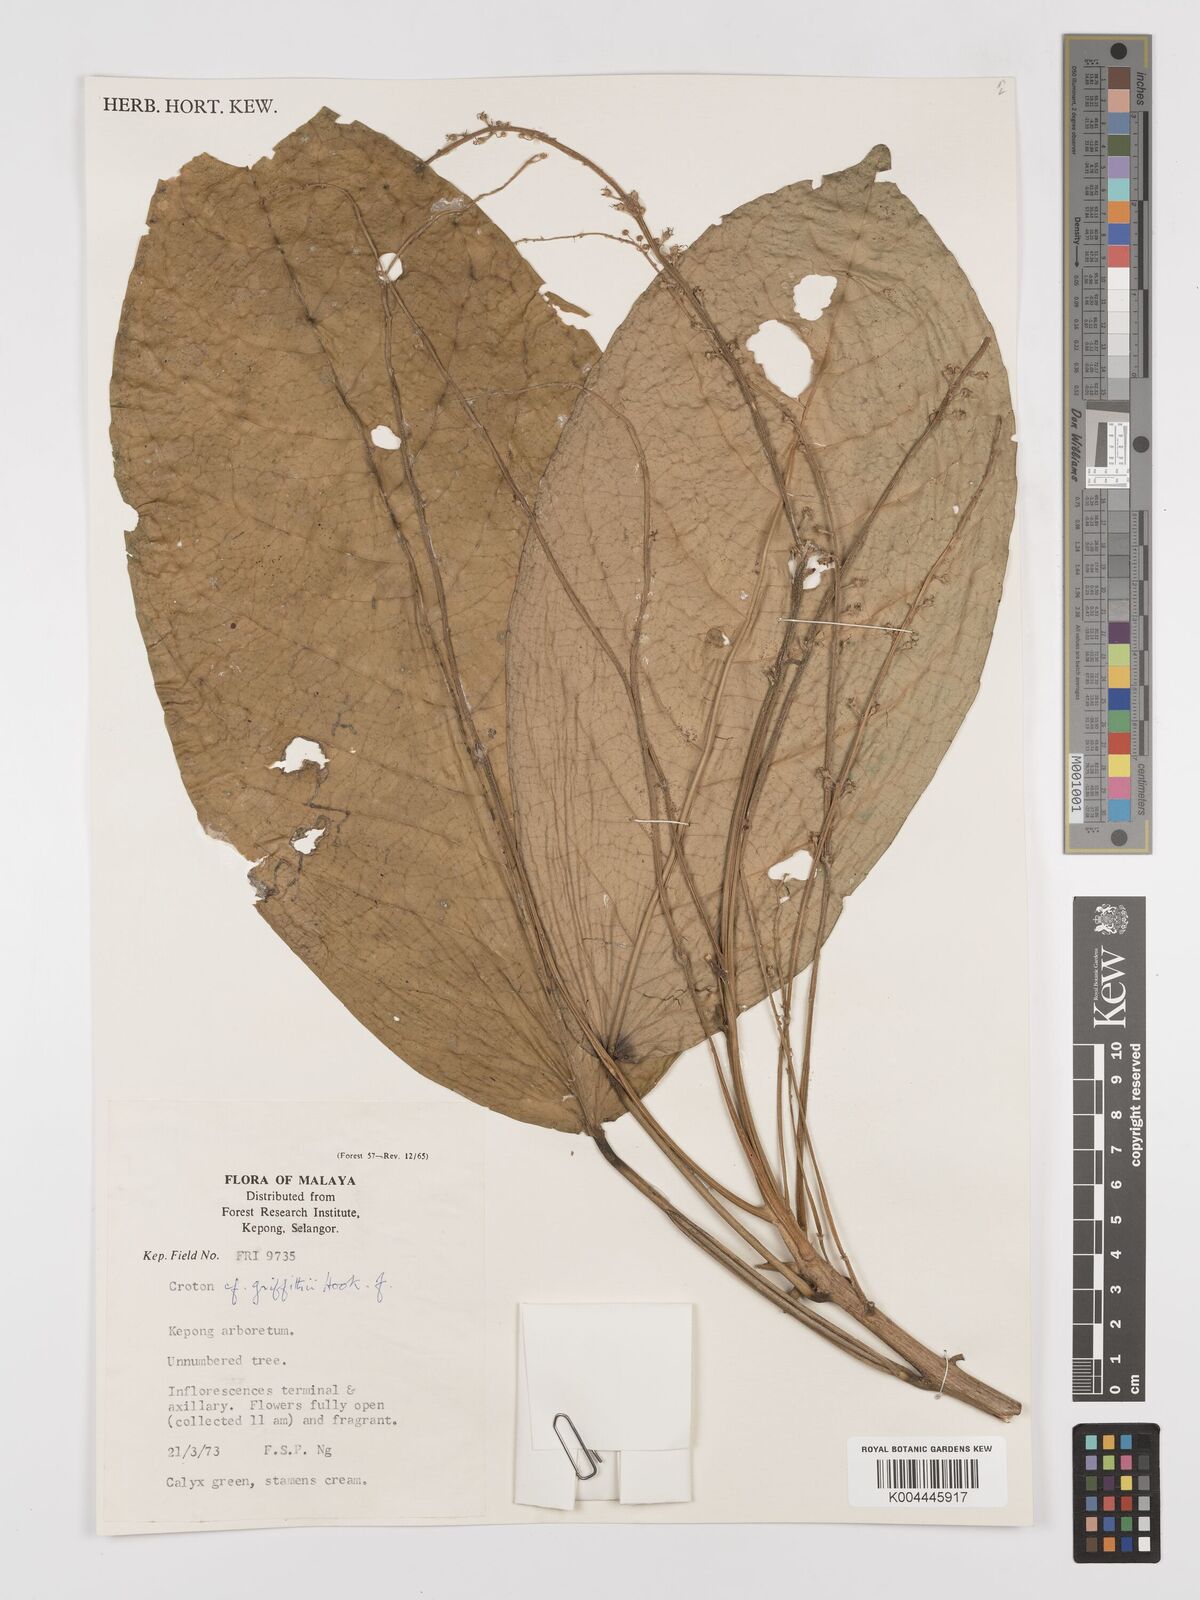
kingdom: Plantae
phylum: Tracheophyta
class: Magnoliopsida
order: Malpighiales
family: Euphorbiaceae
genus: Croton
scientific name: Croton griffithii
